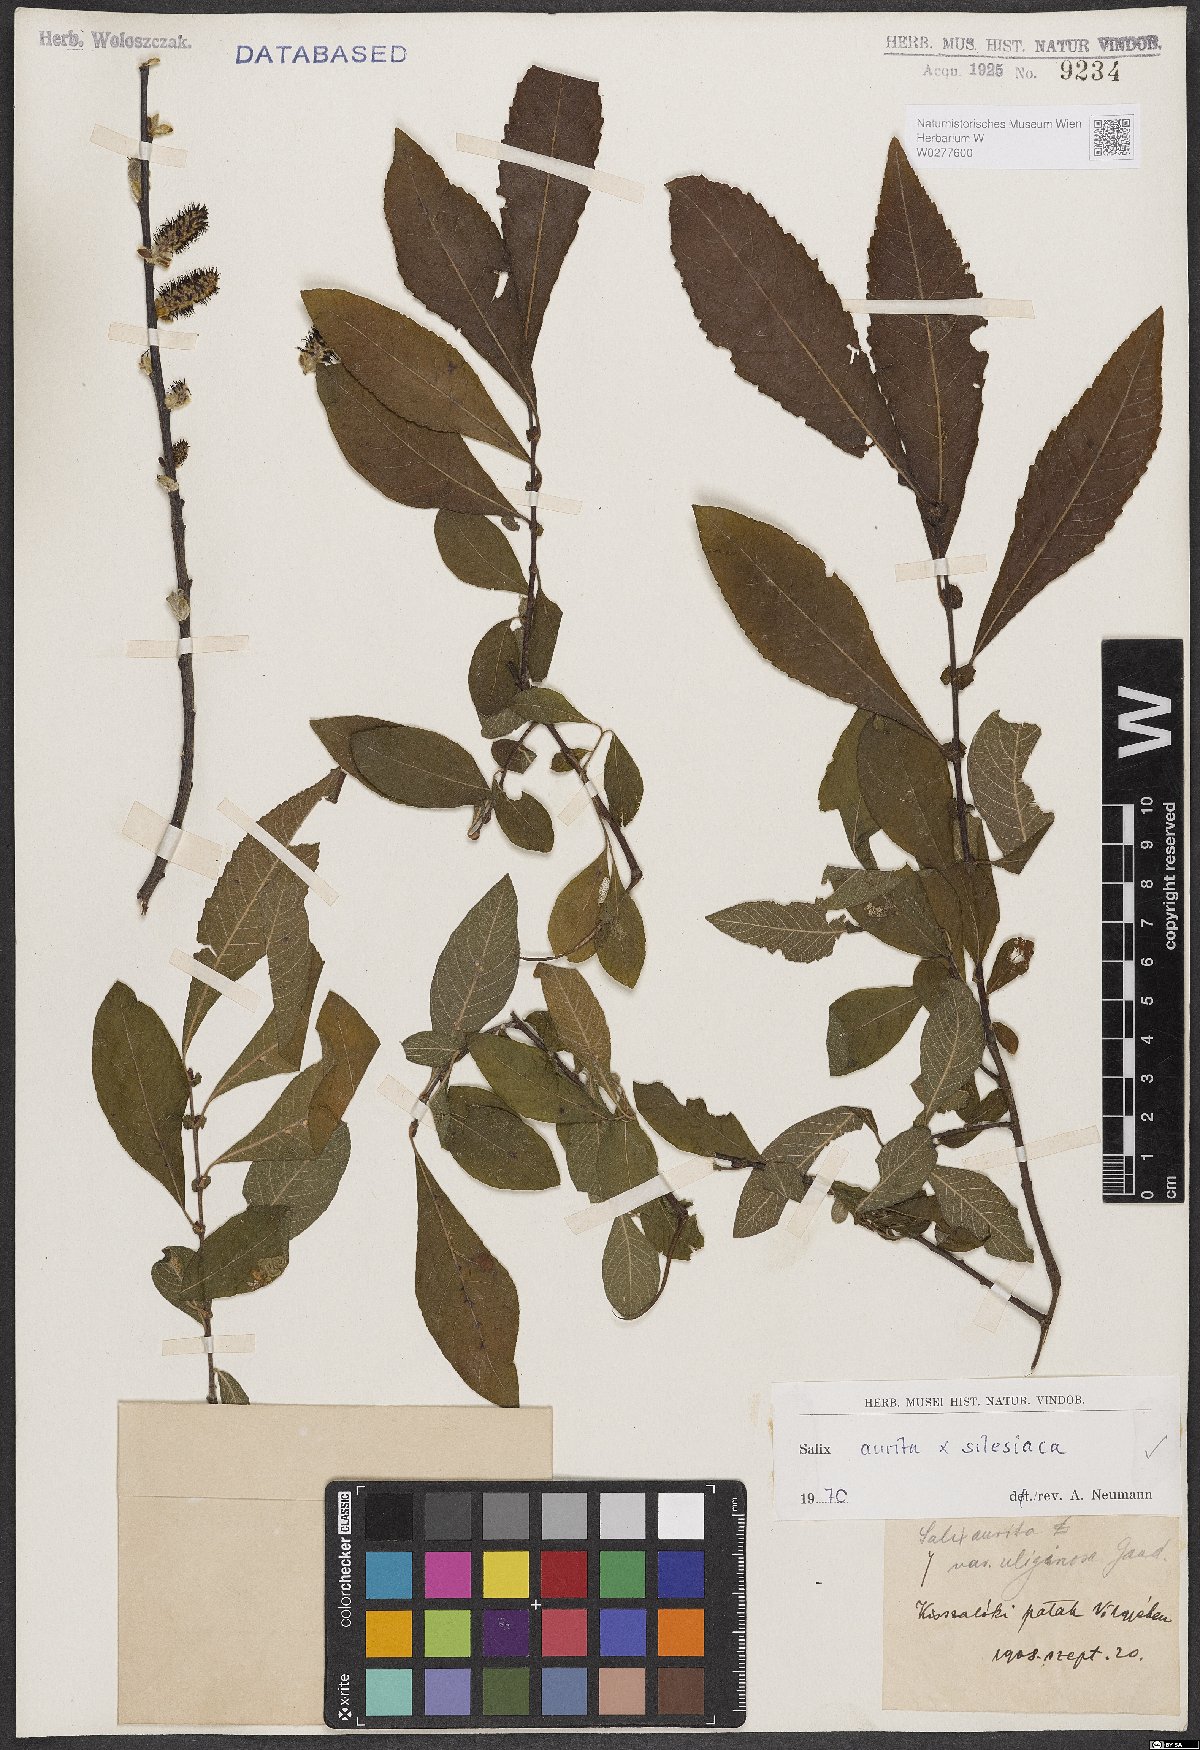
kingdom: Plantae
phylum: Tracheophyta
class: Magnoliopsida
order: Malpighiales
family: Salicaceae
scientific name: Salicaceae
